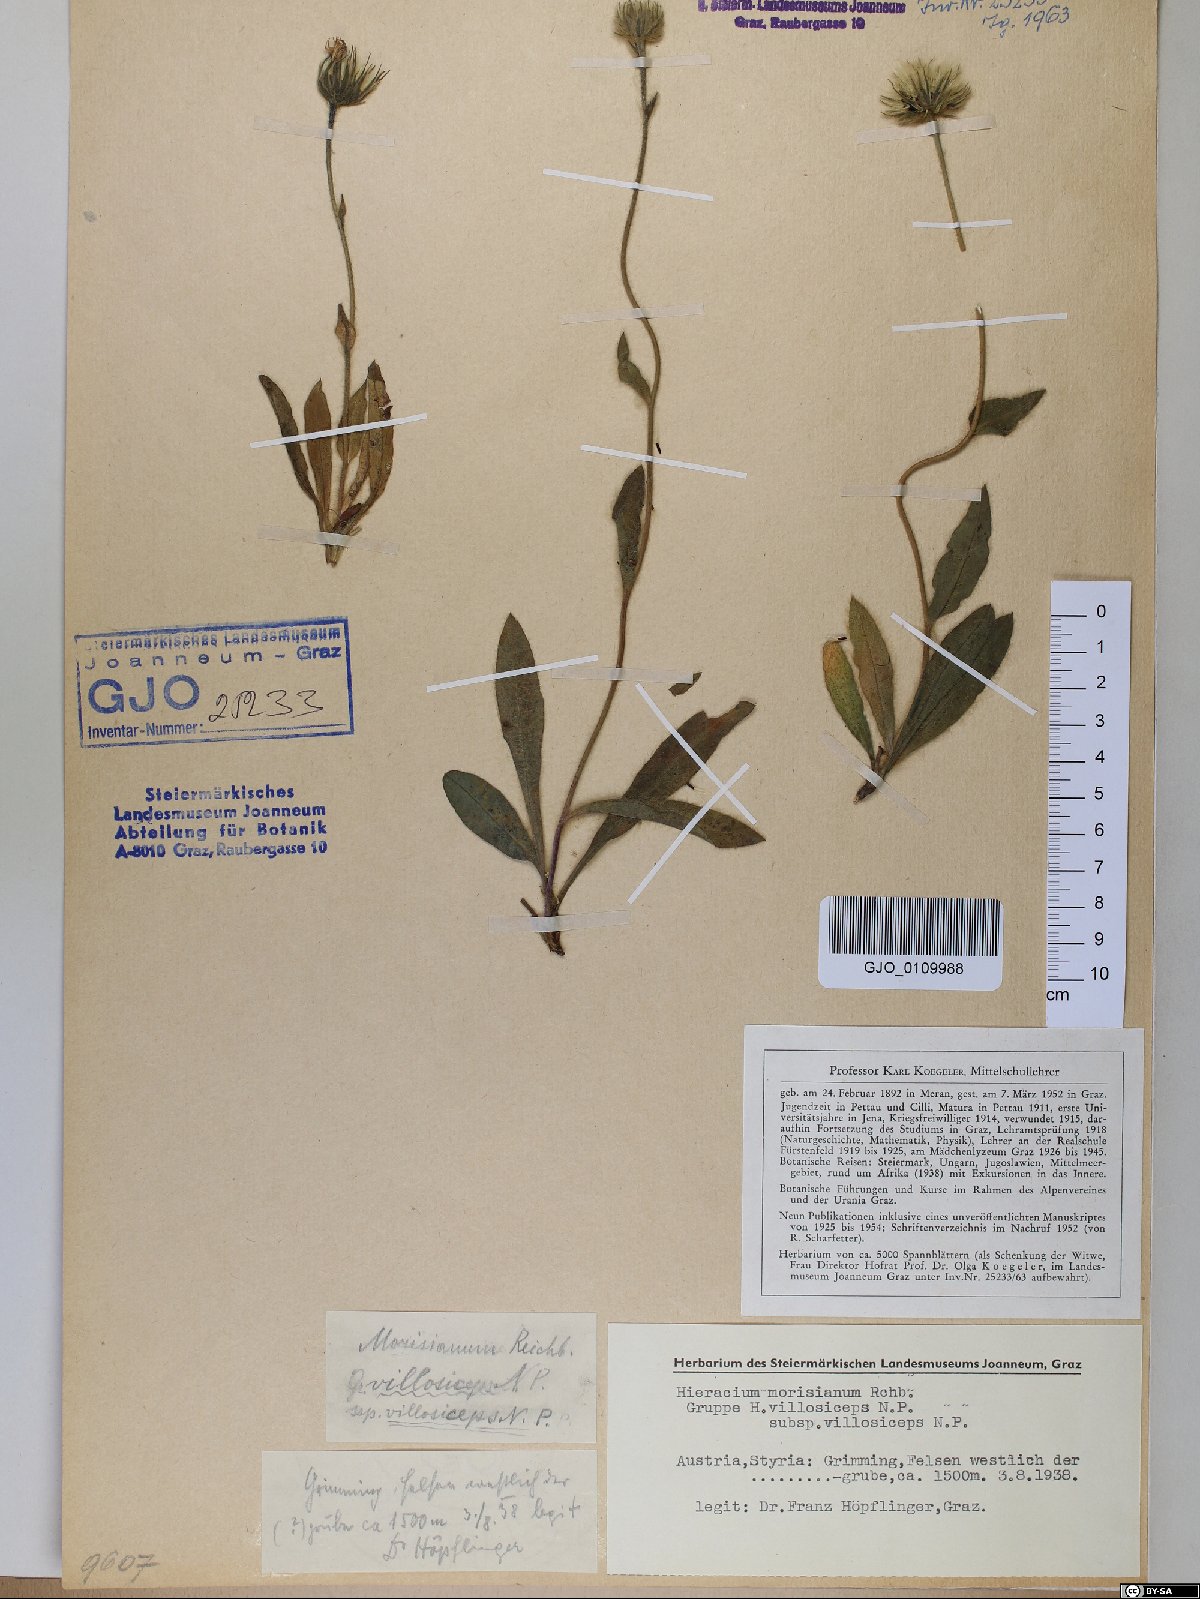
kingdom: Plantae
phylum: Tracheophyta
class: Magnoliopsida
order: Asterales
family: Asteraceae
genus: Hieracium
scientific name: Hieracium pilosum
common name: Fimbriate-pitted hawkweed
